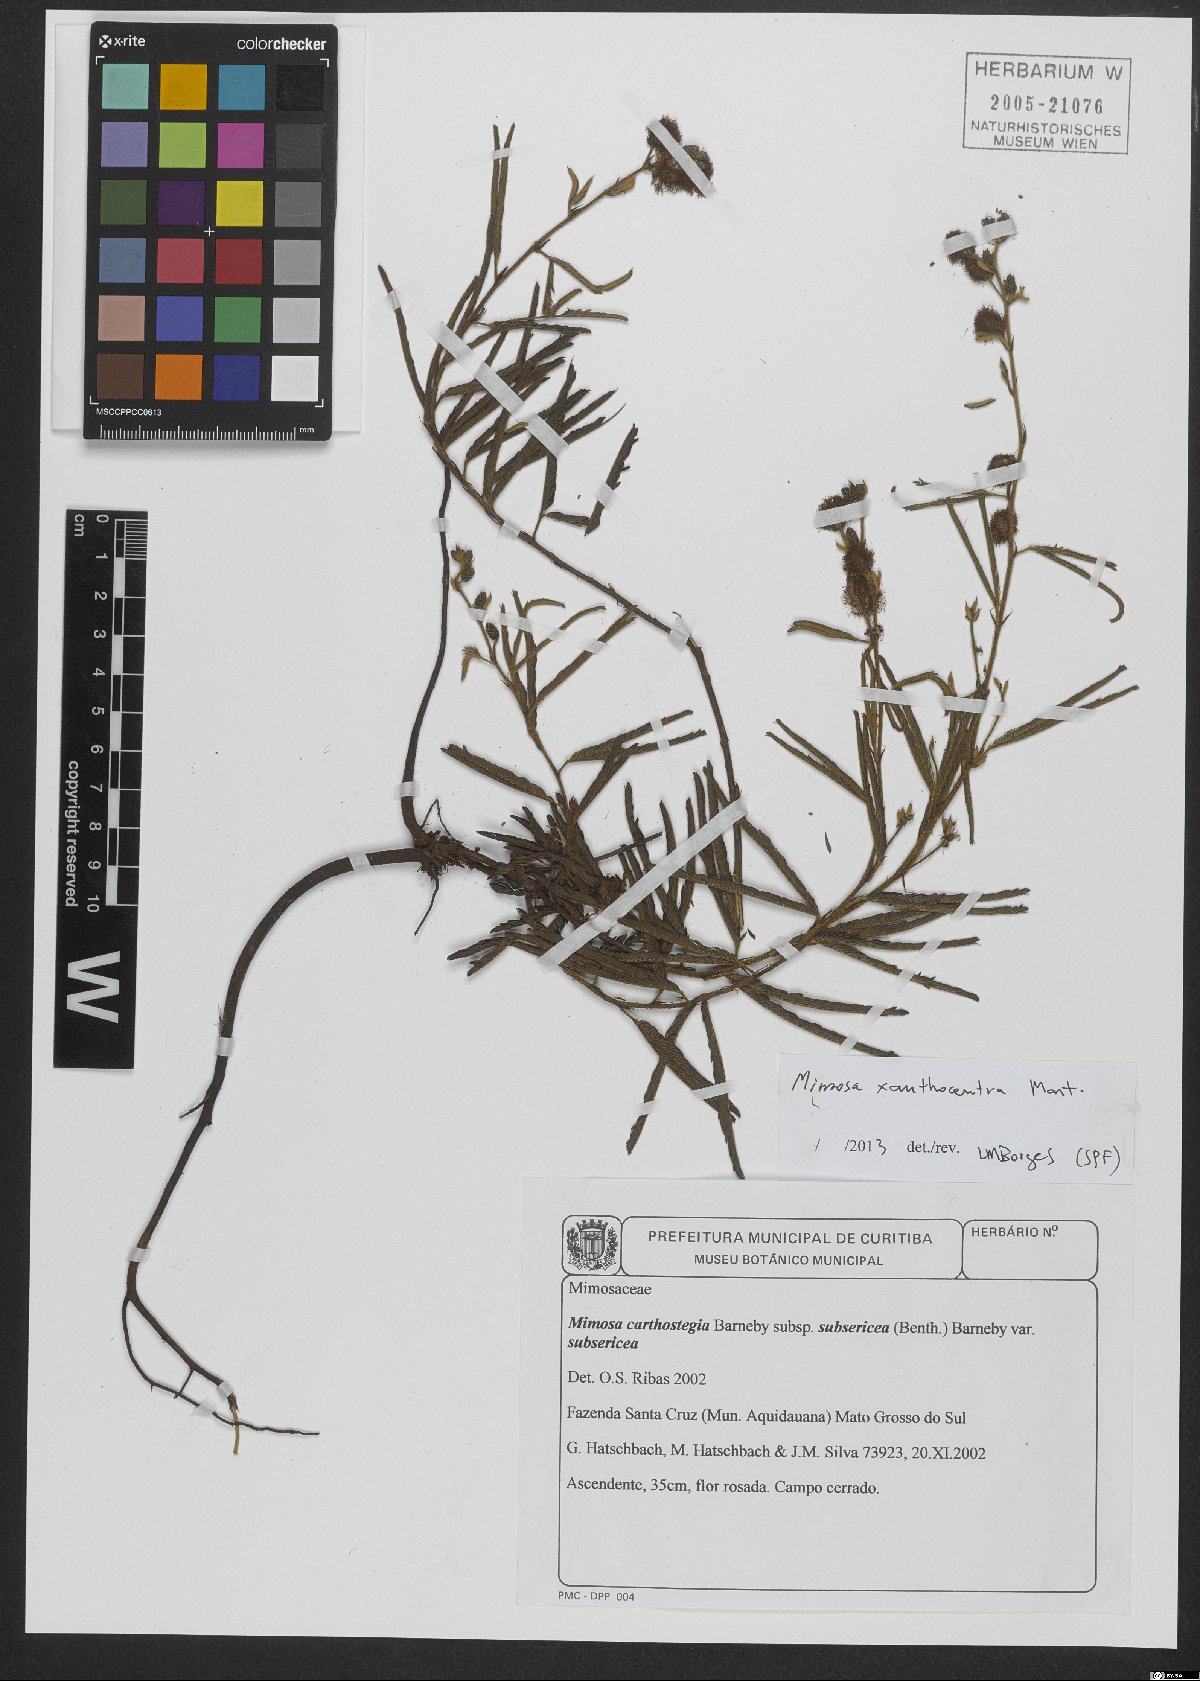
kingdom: Plantae
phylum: Tracheophyta
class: Magnoliopsida
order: Fabales
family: Fabaceae
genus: Mimosa
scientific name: Mimosa xanthocentra
